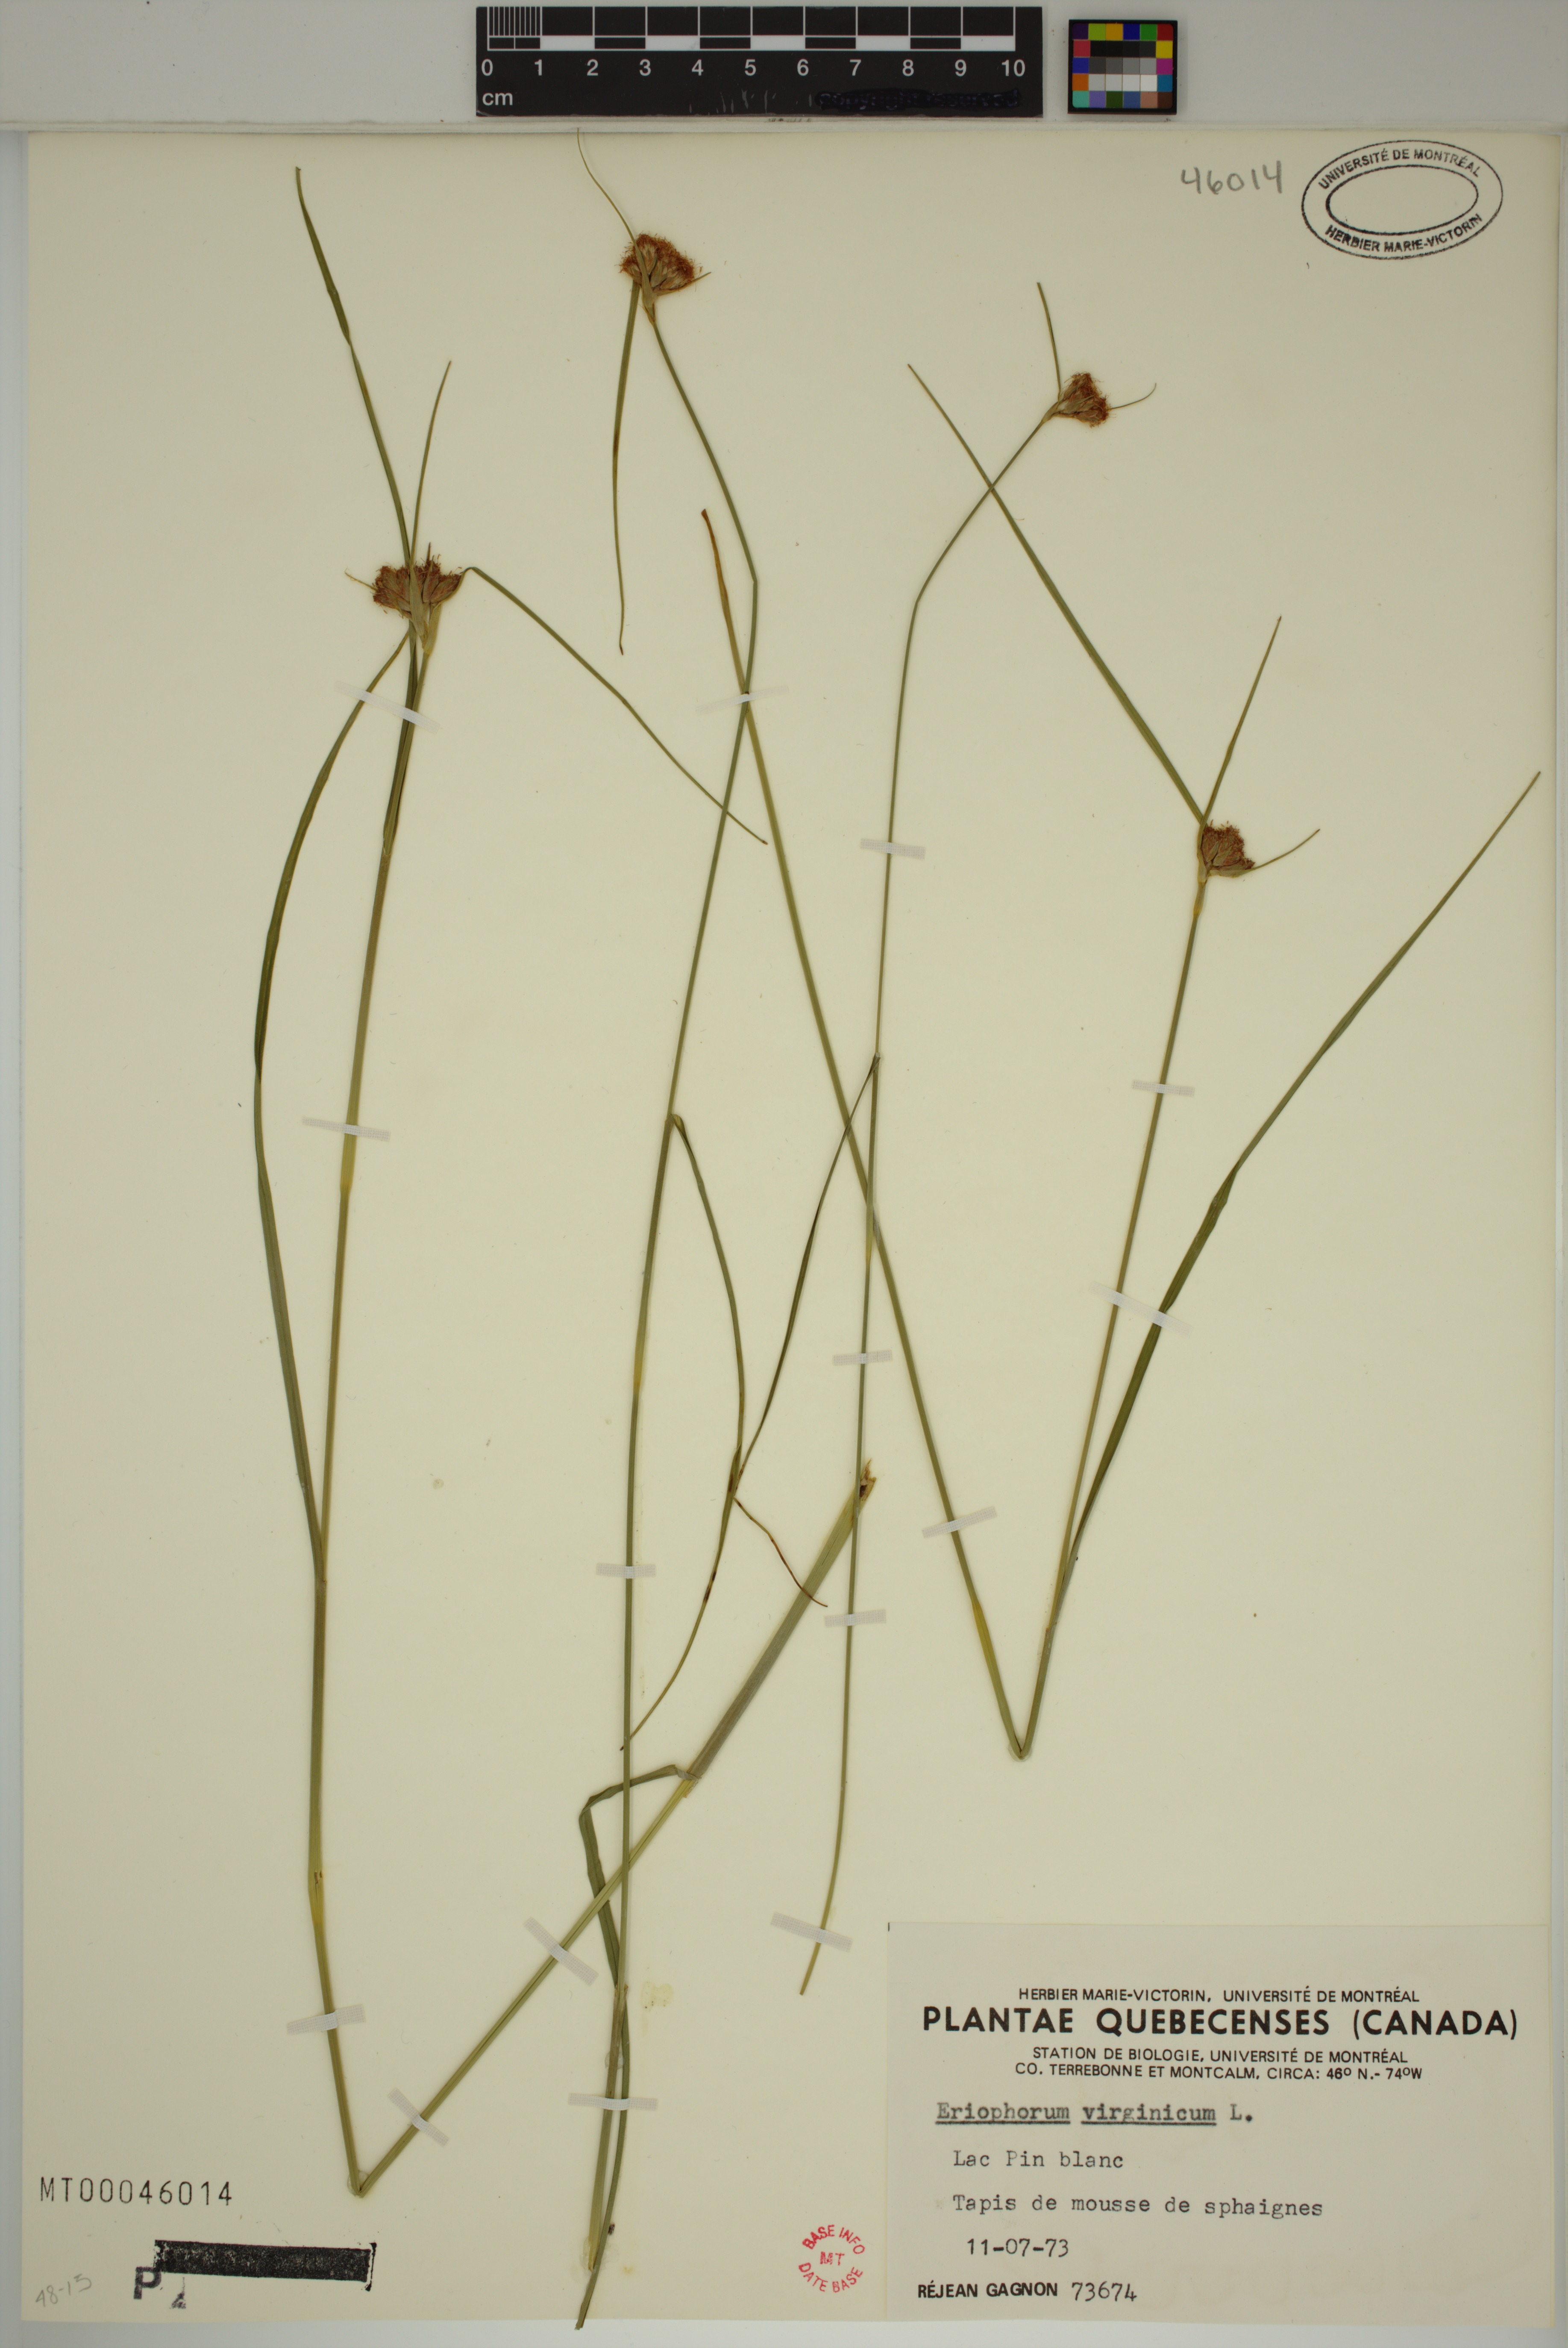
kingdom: Plantae
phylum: Tracheophyta
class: Liliopsida
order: Poales
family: Cyperaceae
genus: Eriophorum
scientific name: Eriophorum virginicum
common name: Tawny cottongrass
